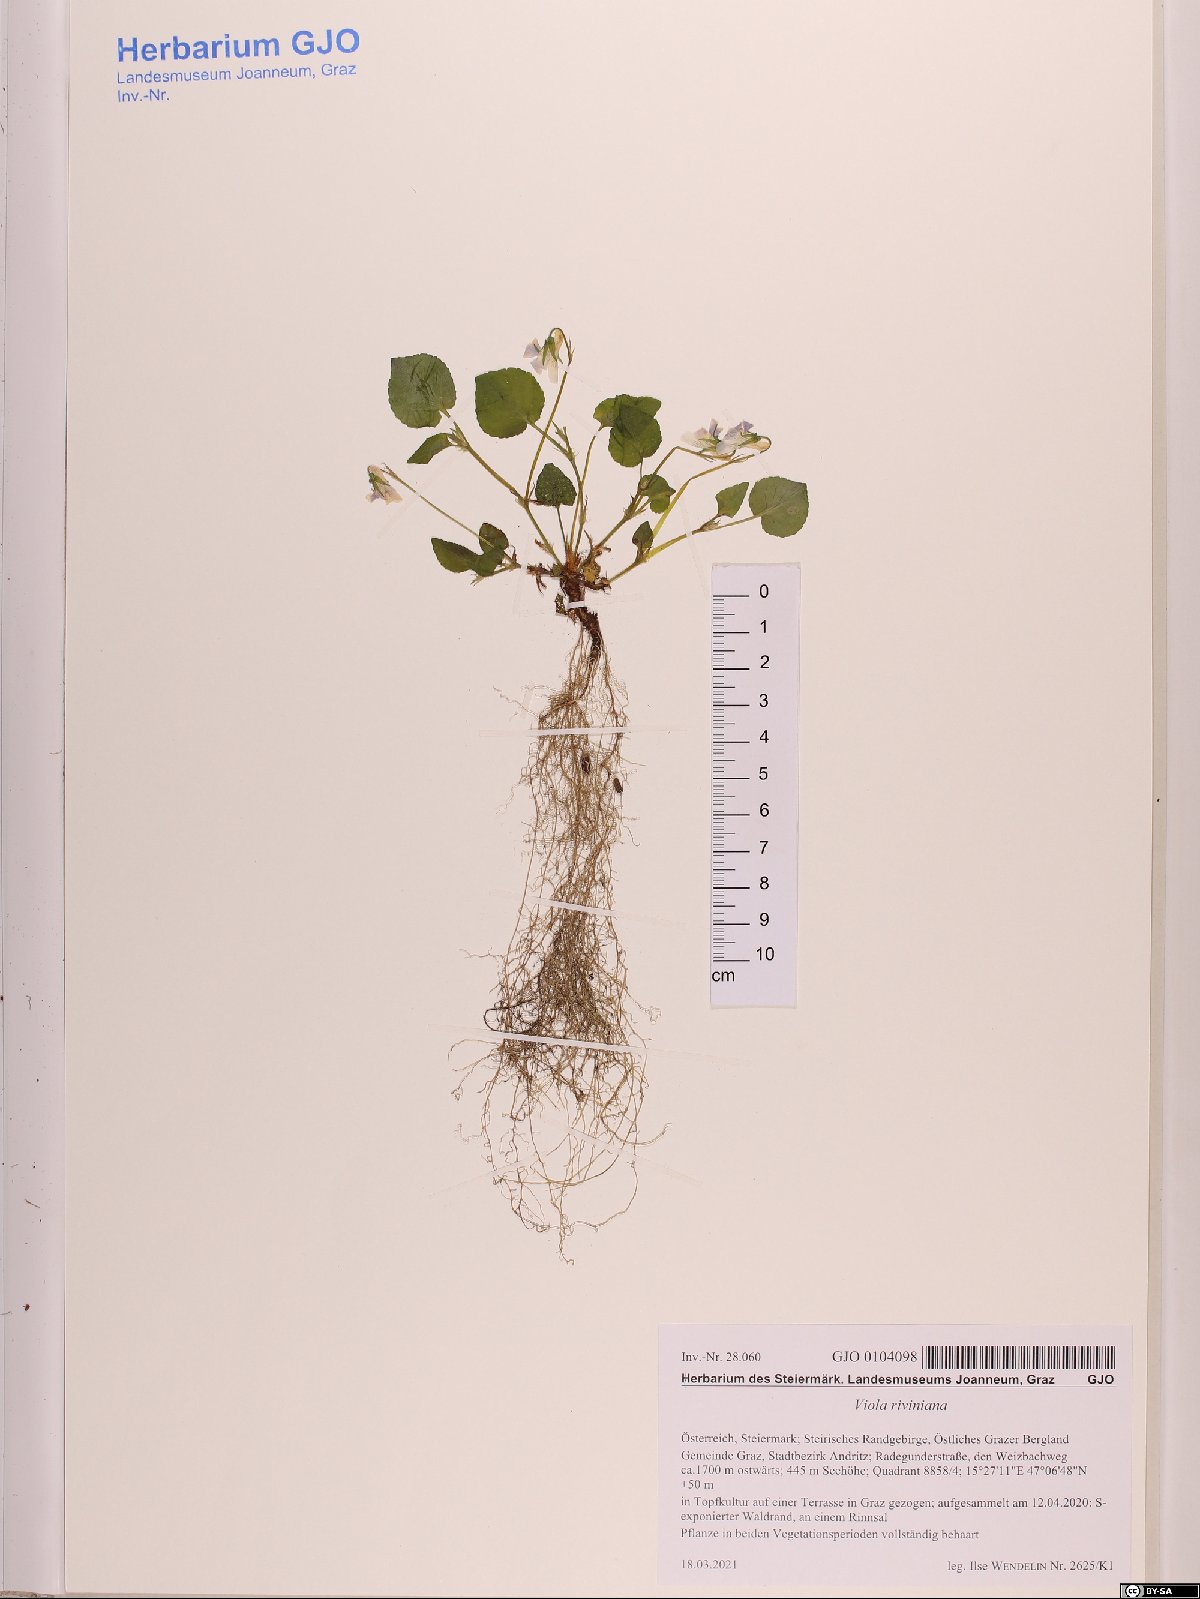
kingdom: Plantae
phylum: Tracheophyta
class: Magnoliopsida
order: Malpighiales
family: Violaceae
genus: Viola
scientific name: Viola riviniana
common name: Common dog-violet
